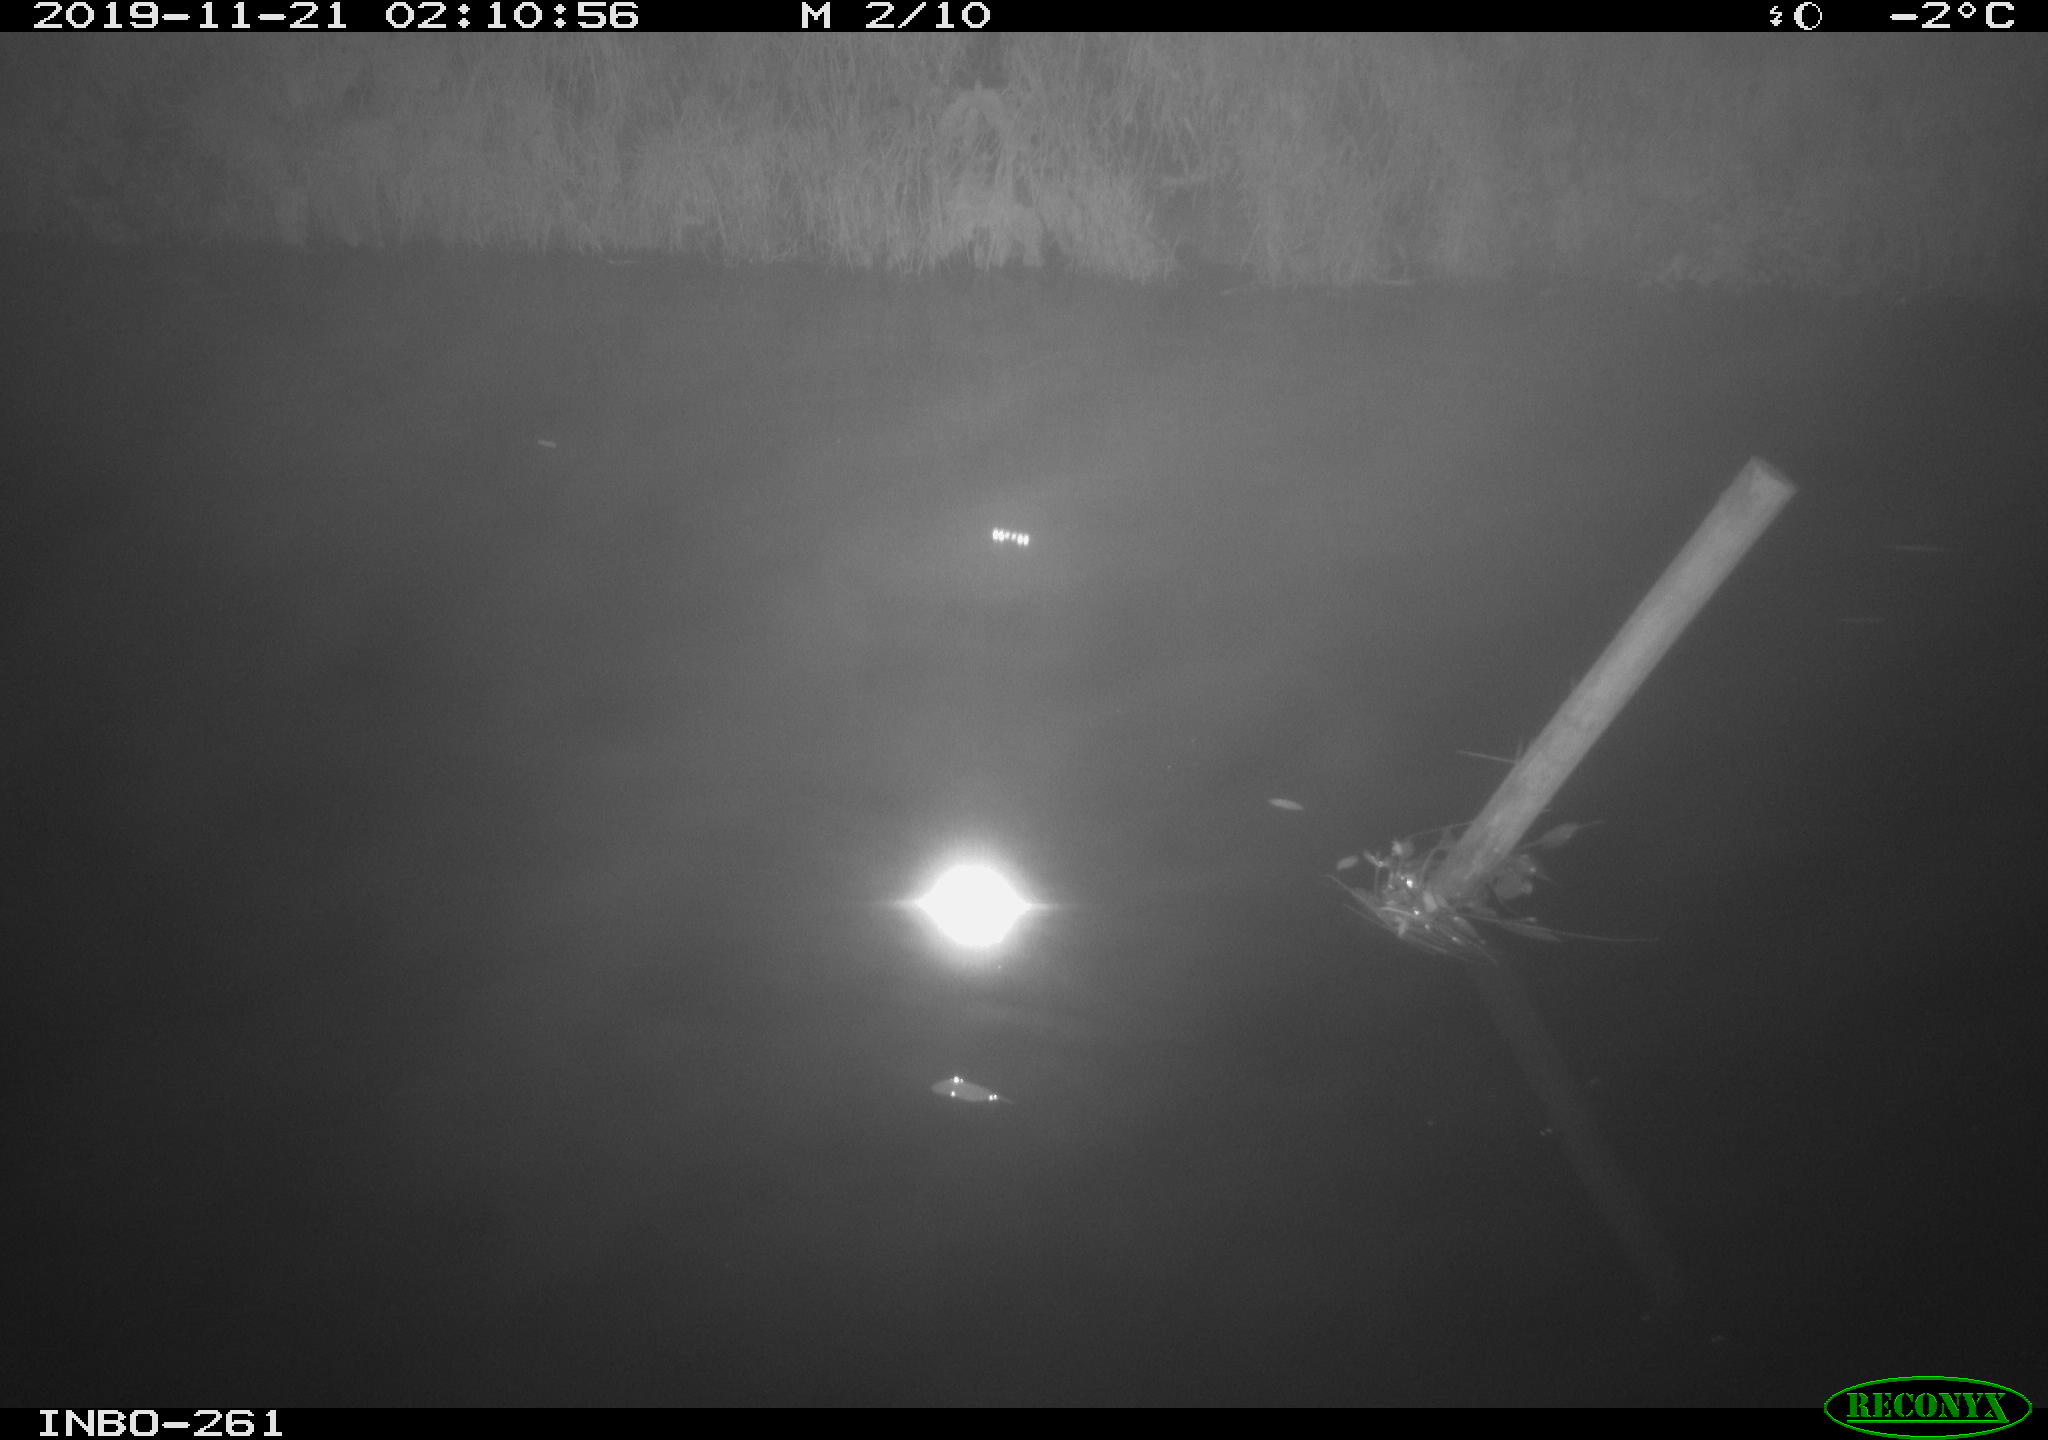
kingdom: Animalia
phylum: Chordata
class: Aves
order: Anseriformes
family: Anatidae
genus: Anas
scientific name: Anas platyrhynchos
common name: Mallard
